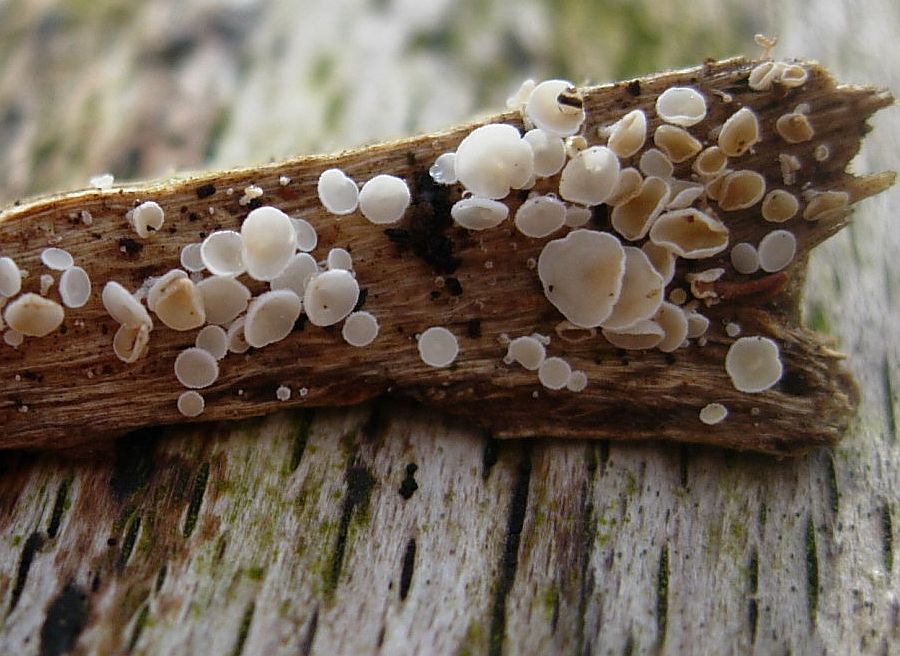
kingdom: Fungi
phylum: Ascomycota
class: Leotiomycetes
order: Helotiales
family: Lachnaceae
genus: Lachnum
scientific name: Lachnum impudicum
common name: vinter-frynseskive
